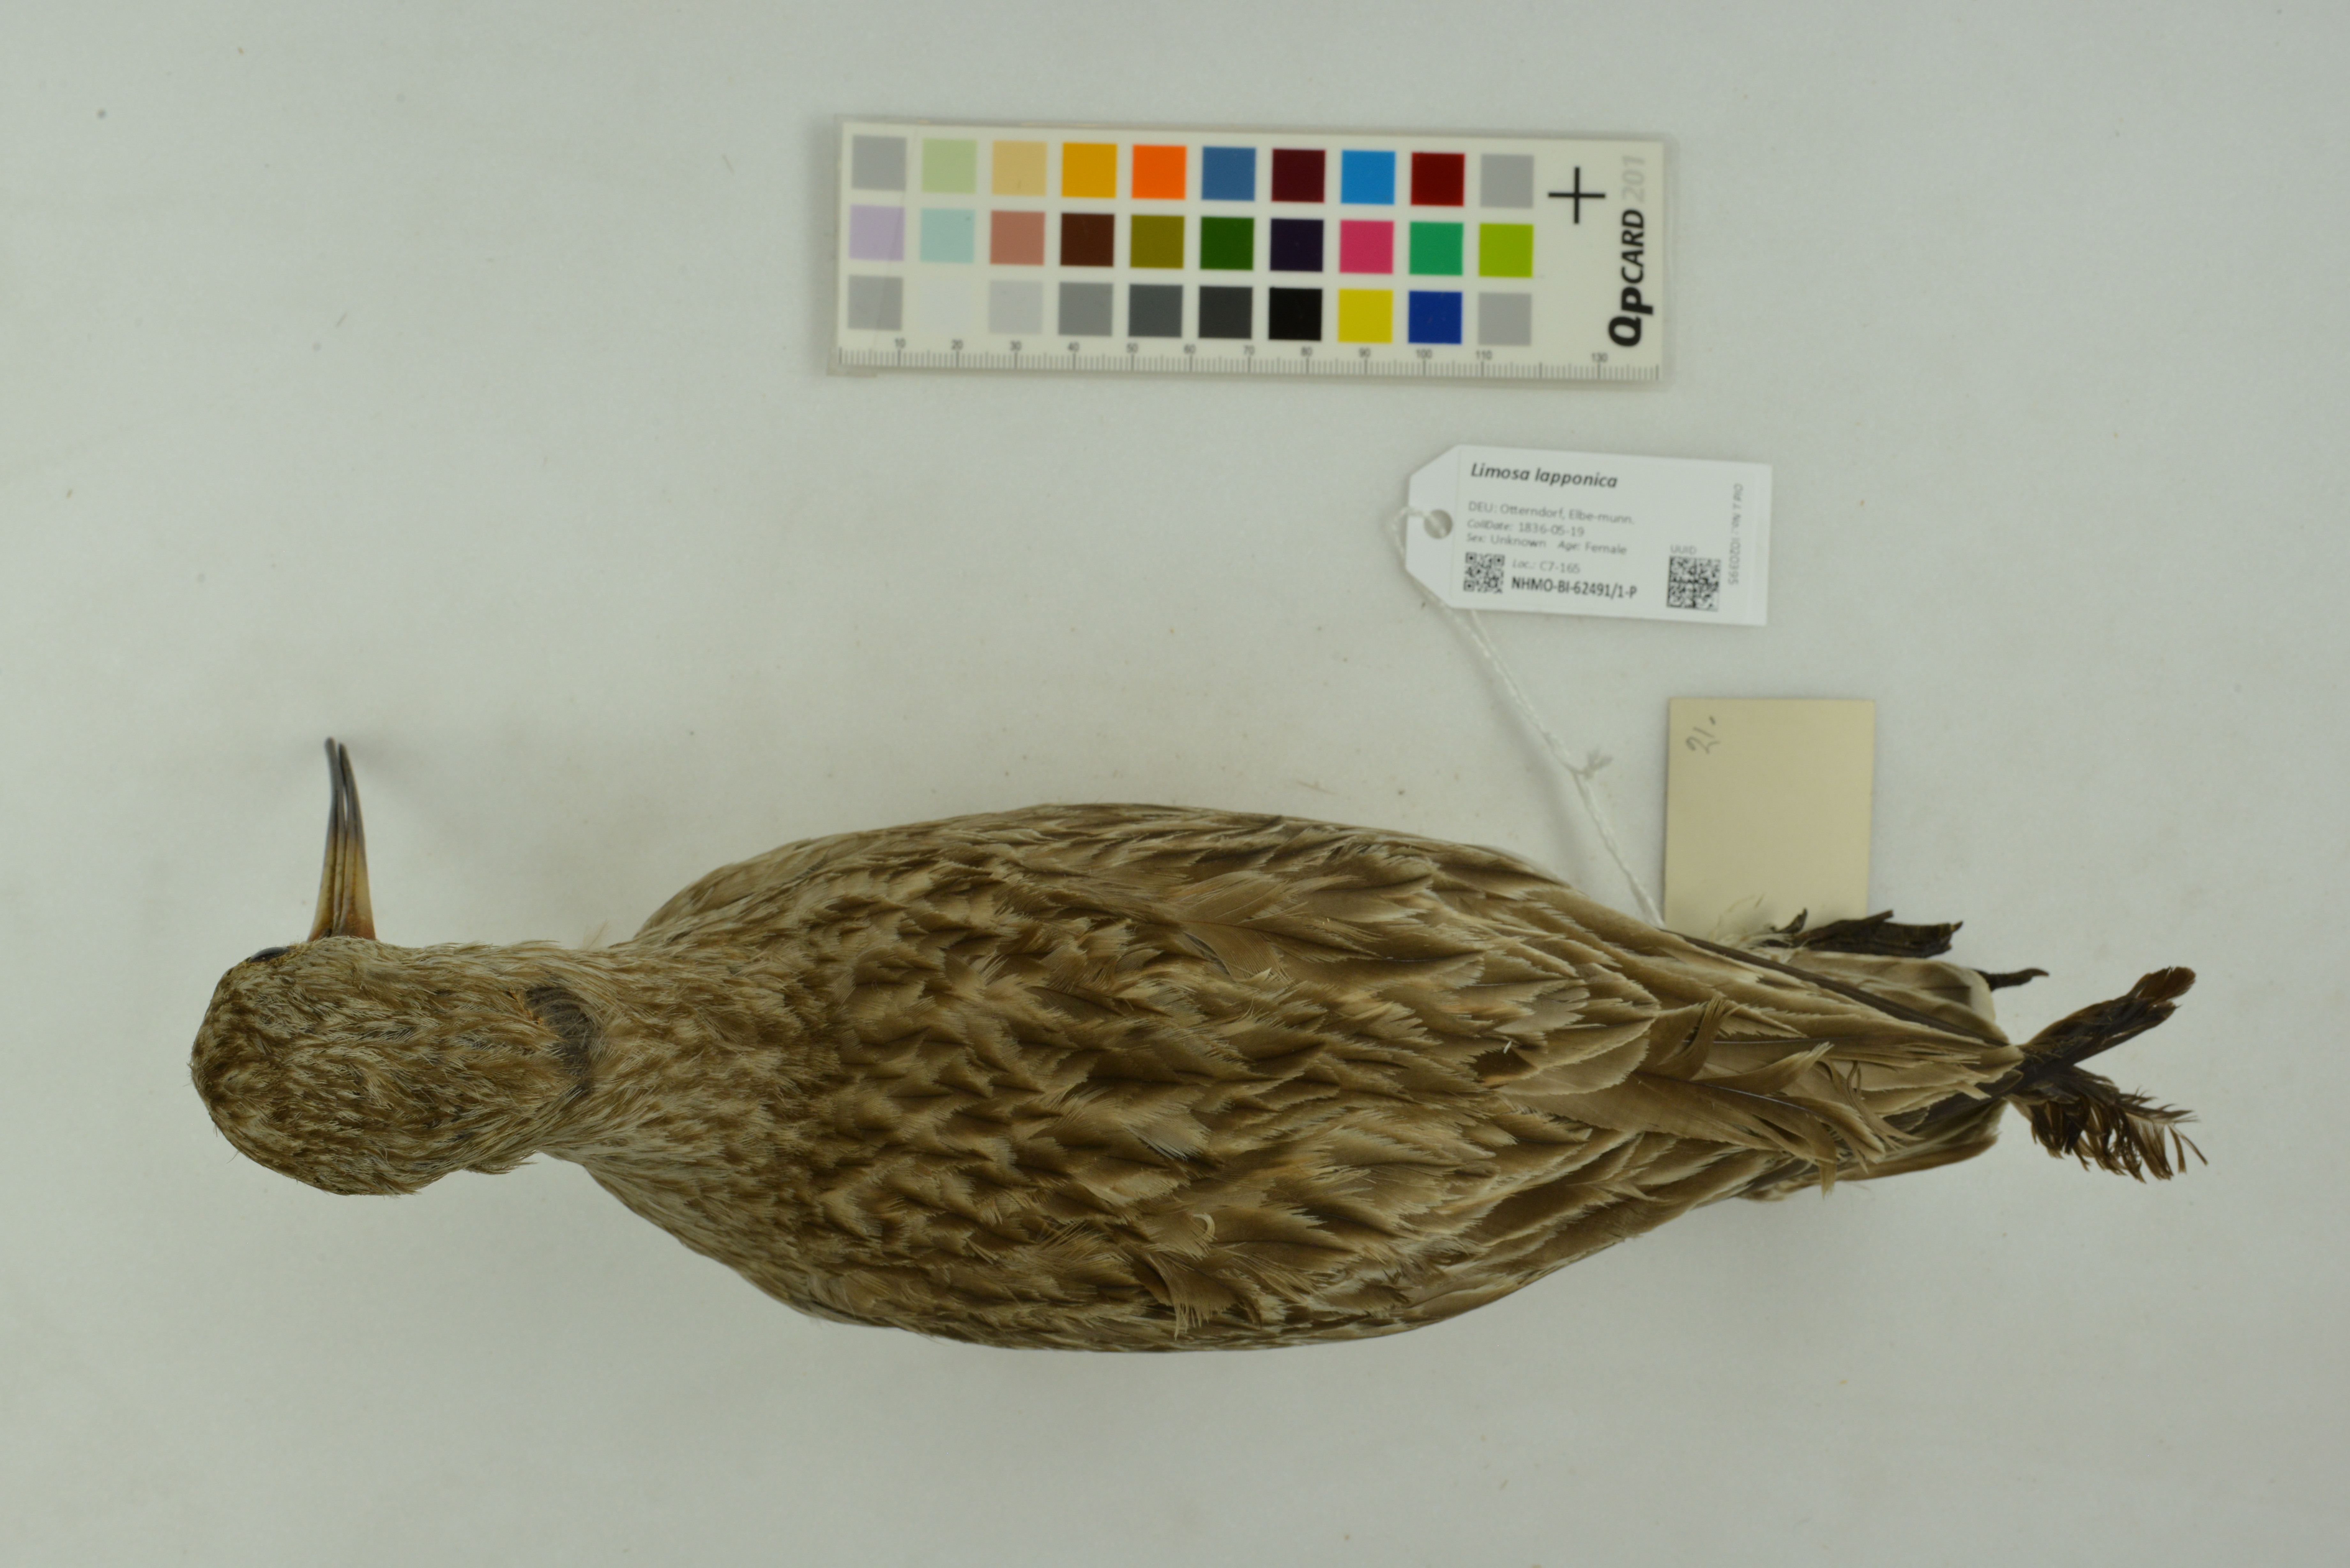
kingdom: Animalia
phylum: Chordata
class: Aves
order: Charadriiformes
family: Scolopacidae
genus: Limosa
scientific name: Limosa lapponica
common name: Bar-tailed godwit
